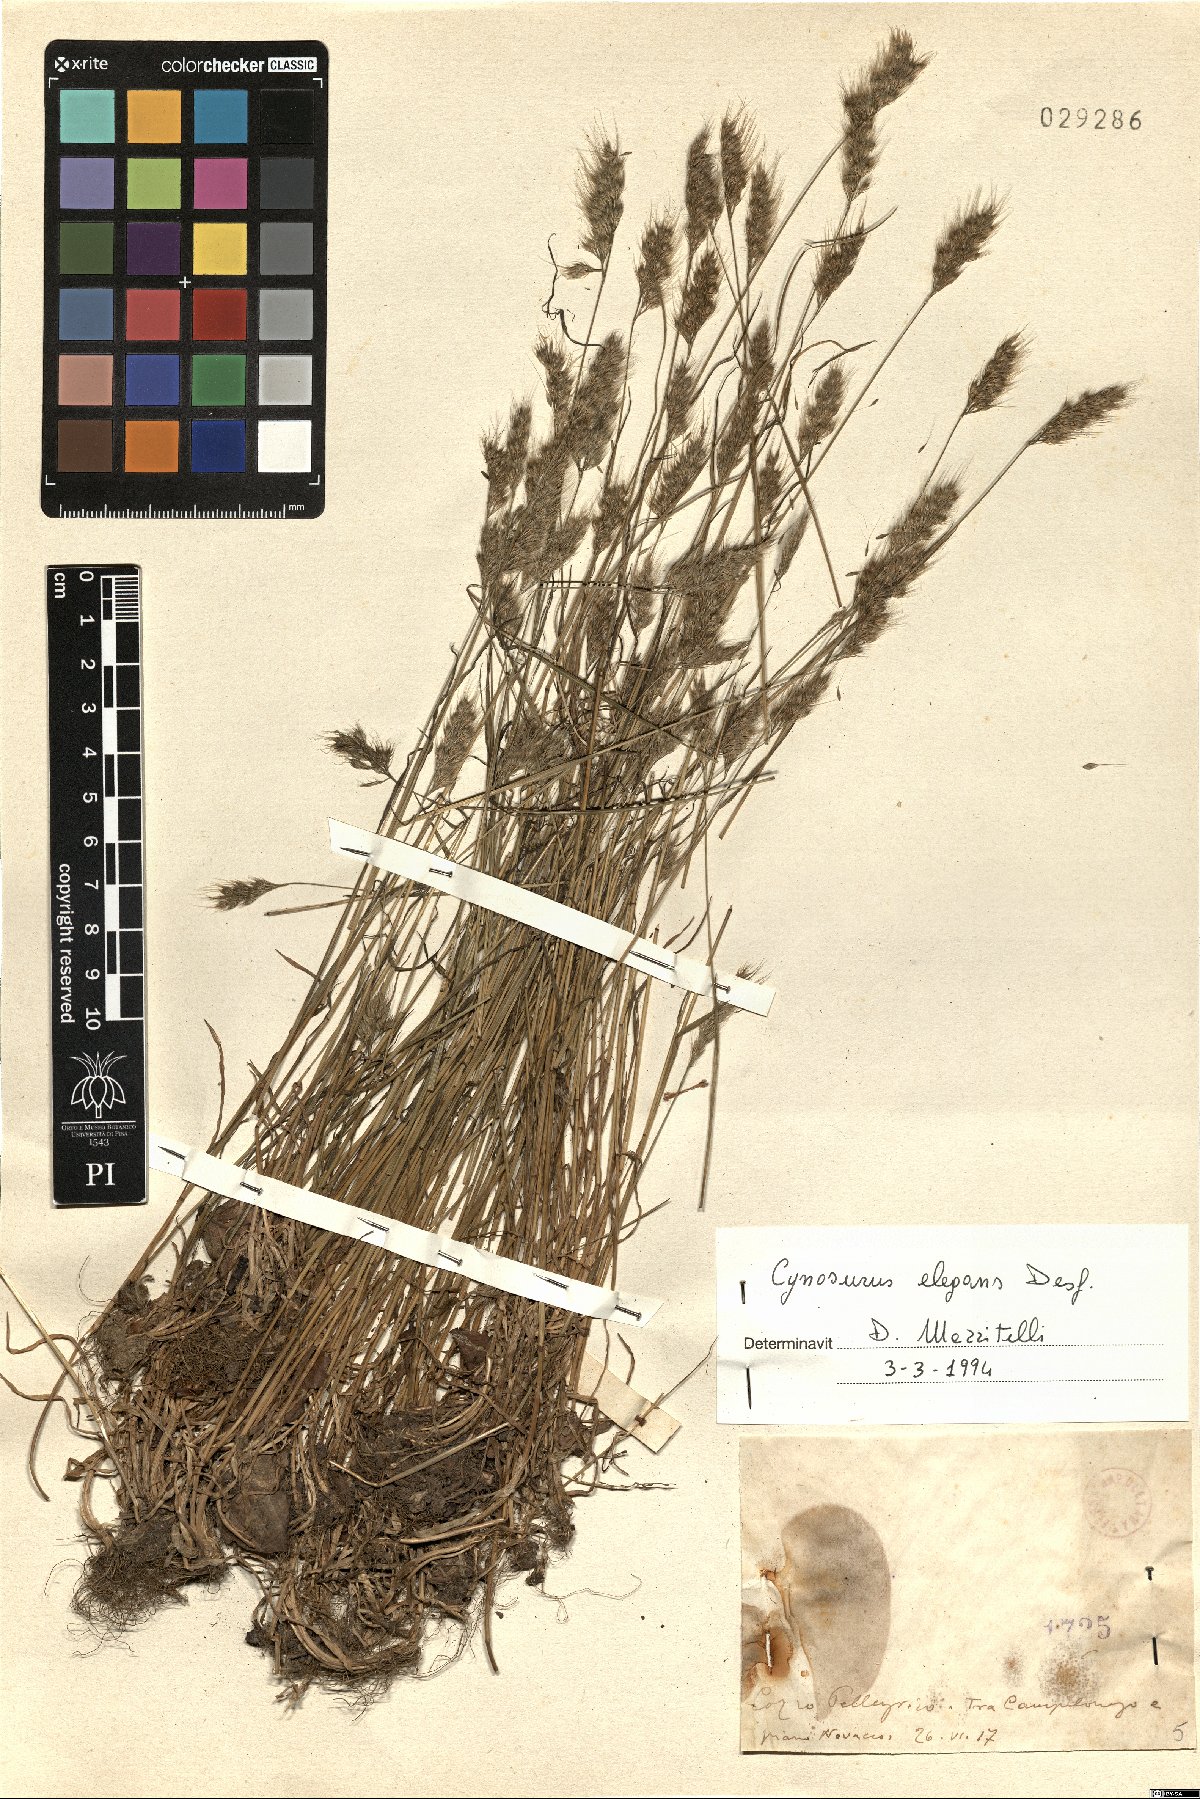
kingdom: Plantae
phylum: Tracheophyta
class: Liliopsida
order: Poales
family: Poaceae
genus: Cynosurus
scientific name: Cynosurus elegans
